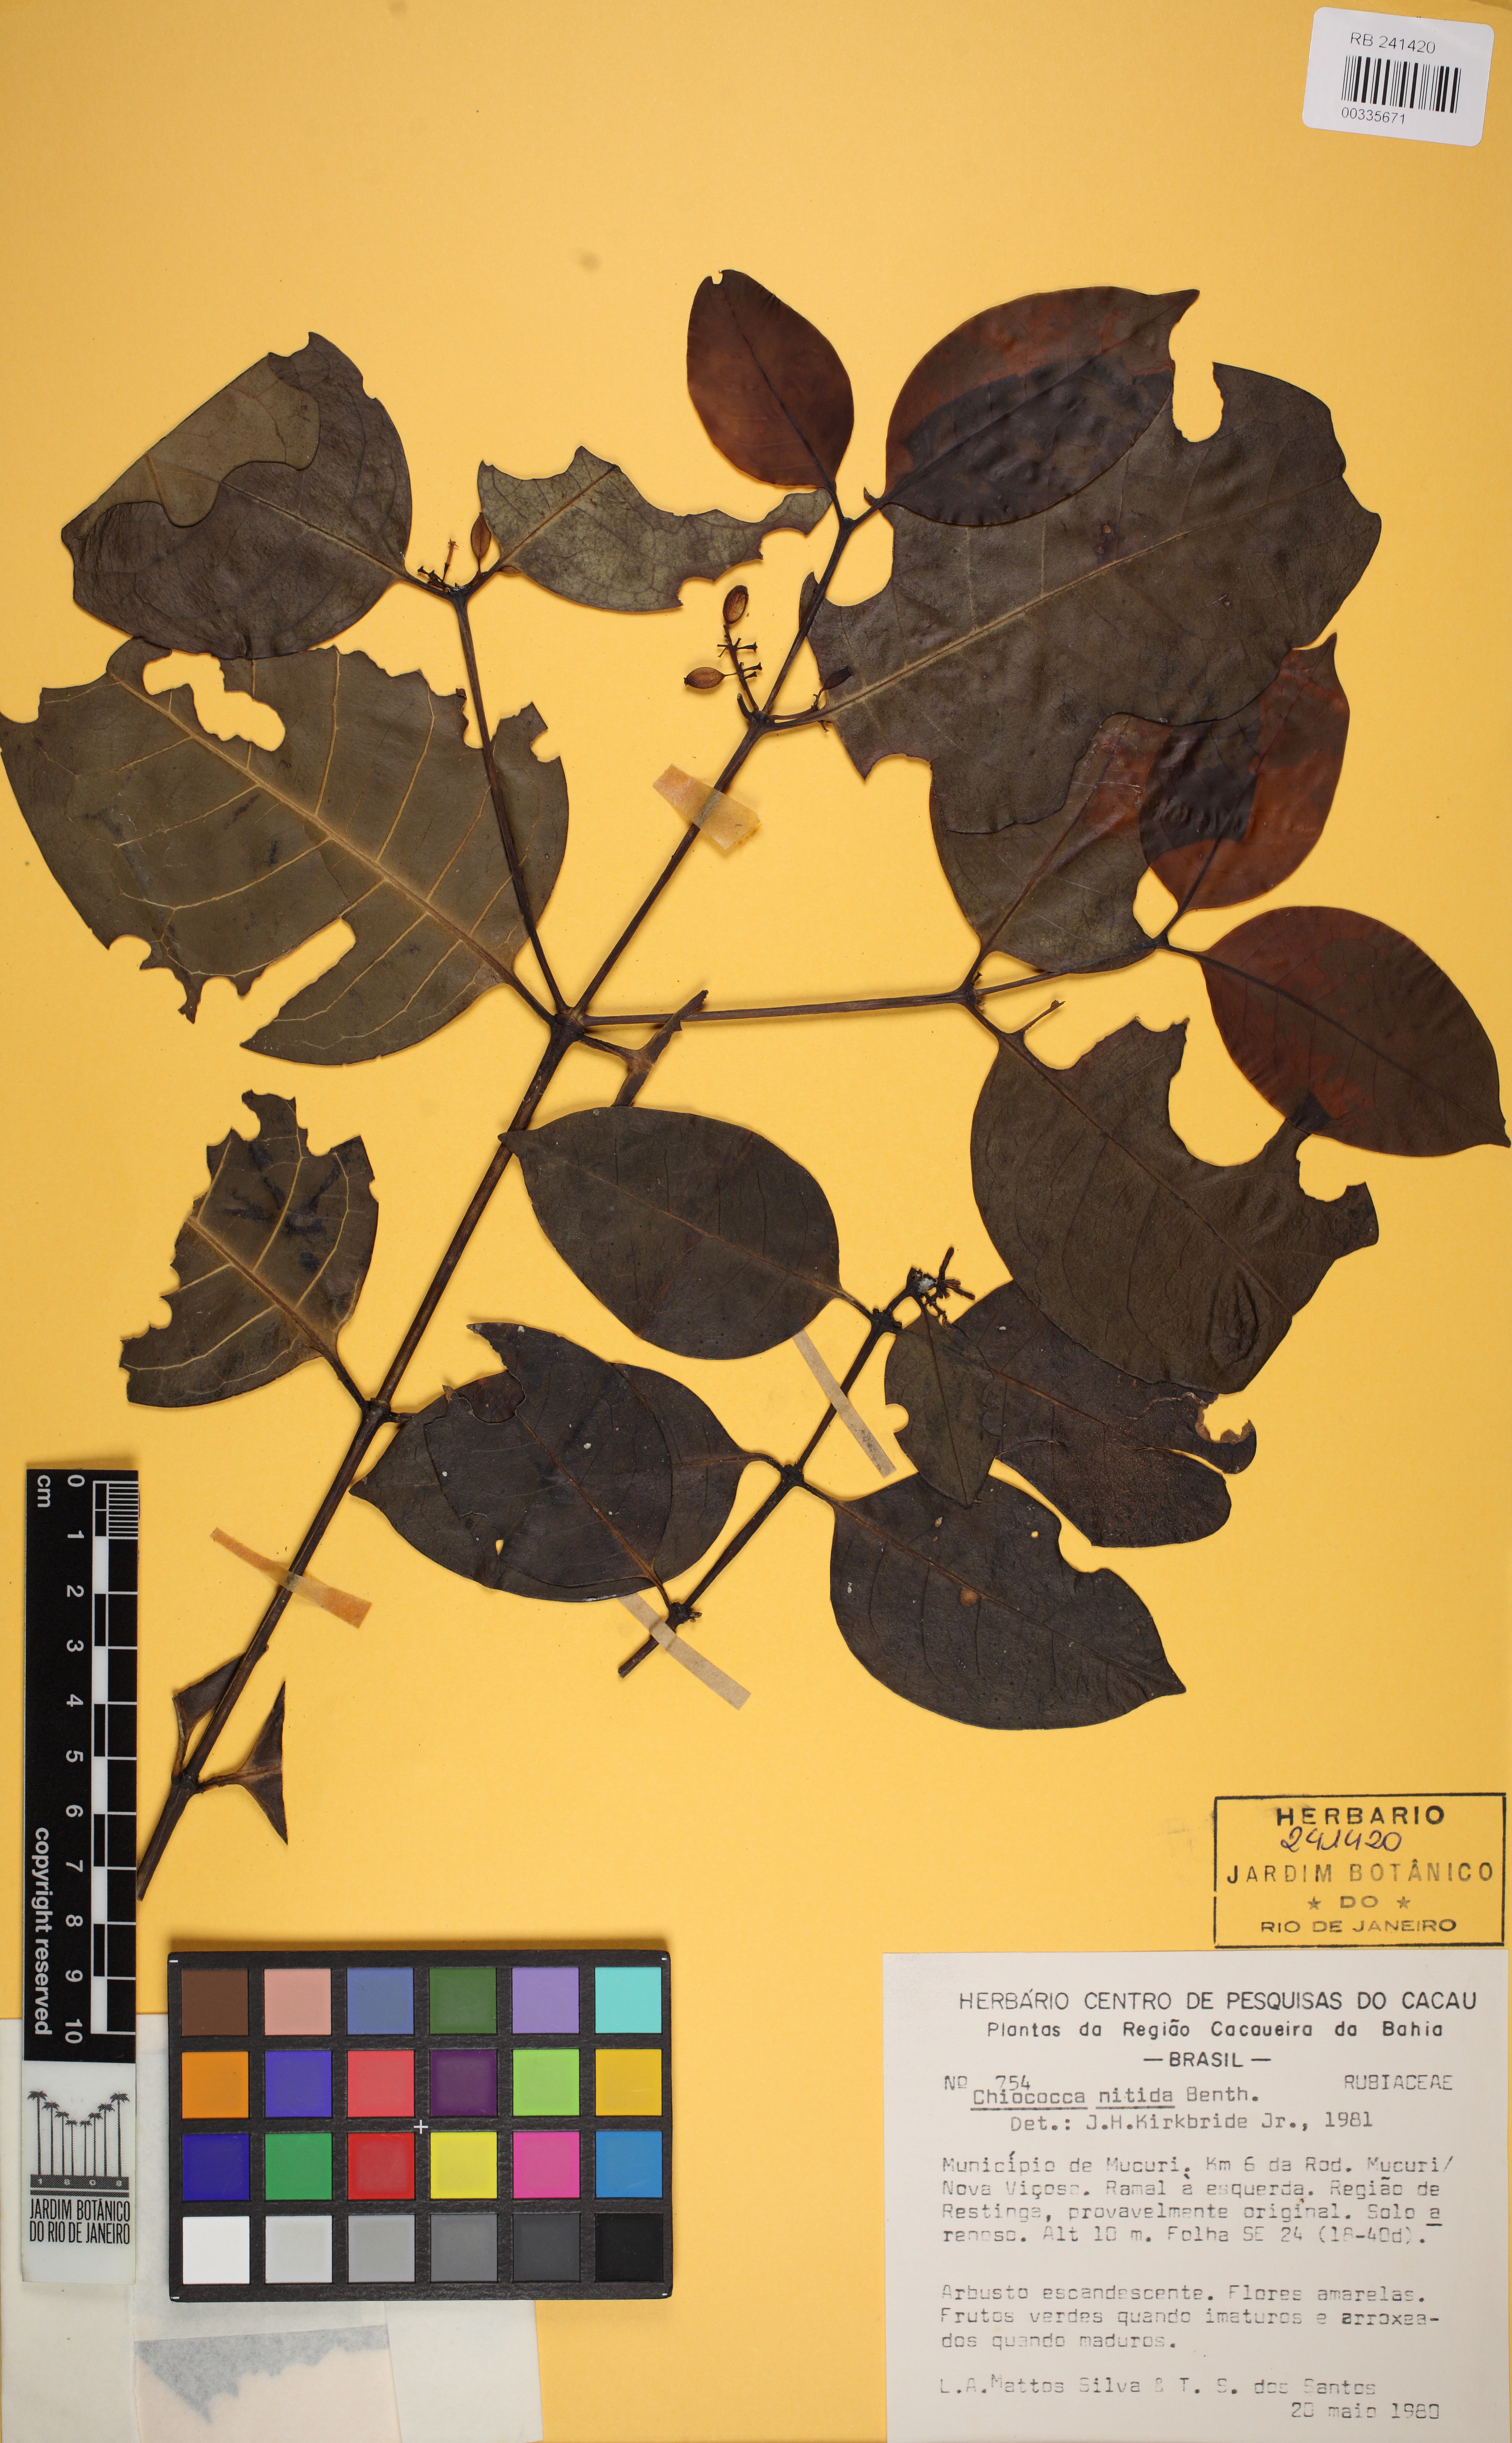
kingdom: Plantae
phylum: Tracheophyta
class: Magnoliopsida
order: Gentianales
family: Rubiaceae
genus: Chiococca
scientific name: Chiococca nitida
